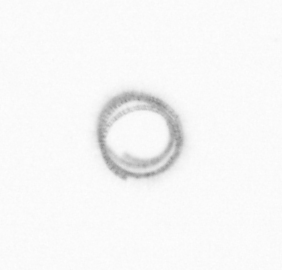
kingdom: Chromista
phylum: Ochrophyta
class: Bacillariophyceae
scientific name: Bacillariophyceae
